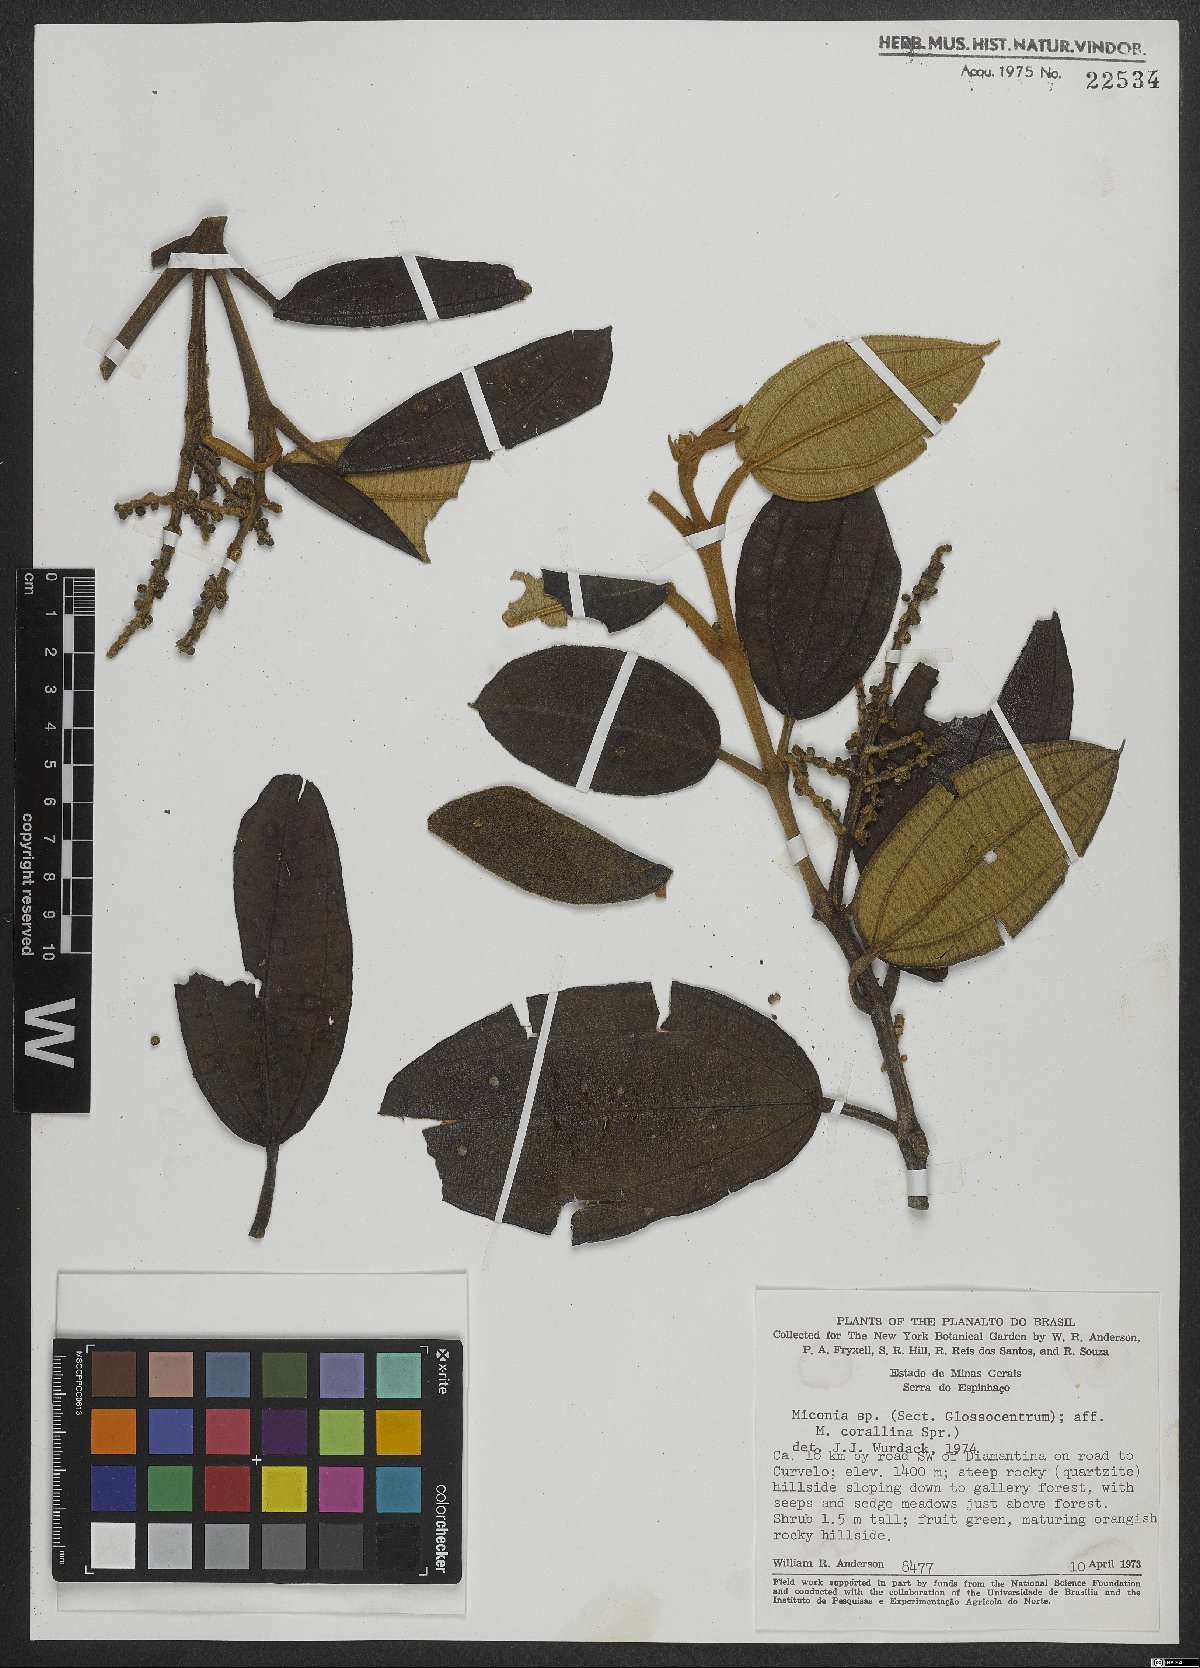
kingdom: Plantae
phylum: Tracheophyta
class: Magnoliopsida
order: Myrtales
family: Melastomataceae
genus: Miconia
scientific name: Miconia
